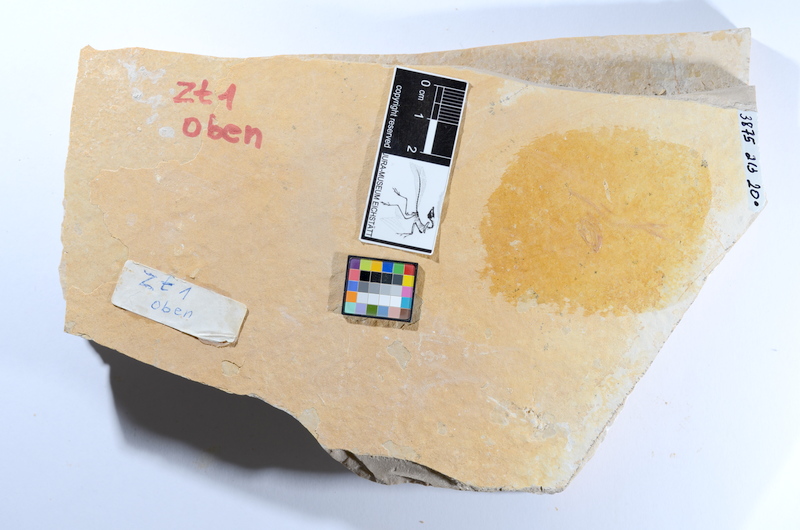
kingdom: Animalia
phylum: Chordata
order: Salmoniformes
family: Orthogonikleithridae
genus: Leptolepides
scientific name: Leptolepides
